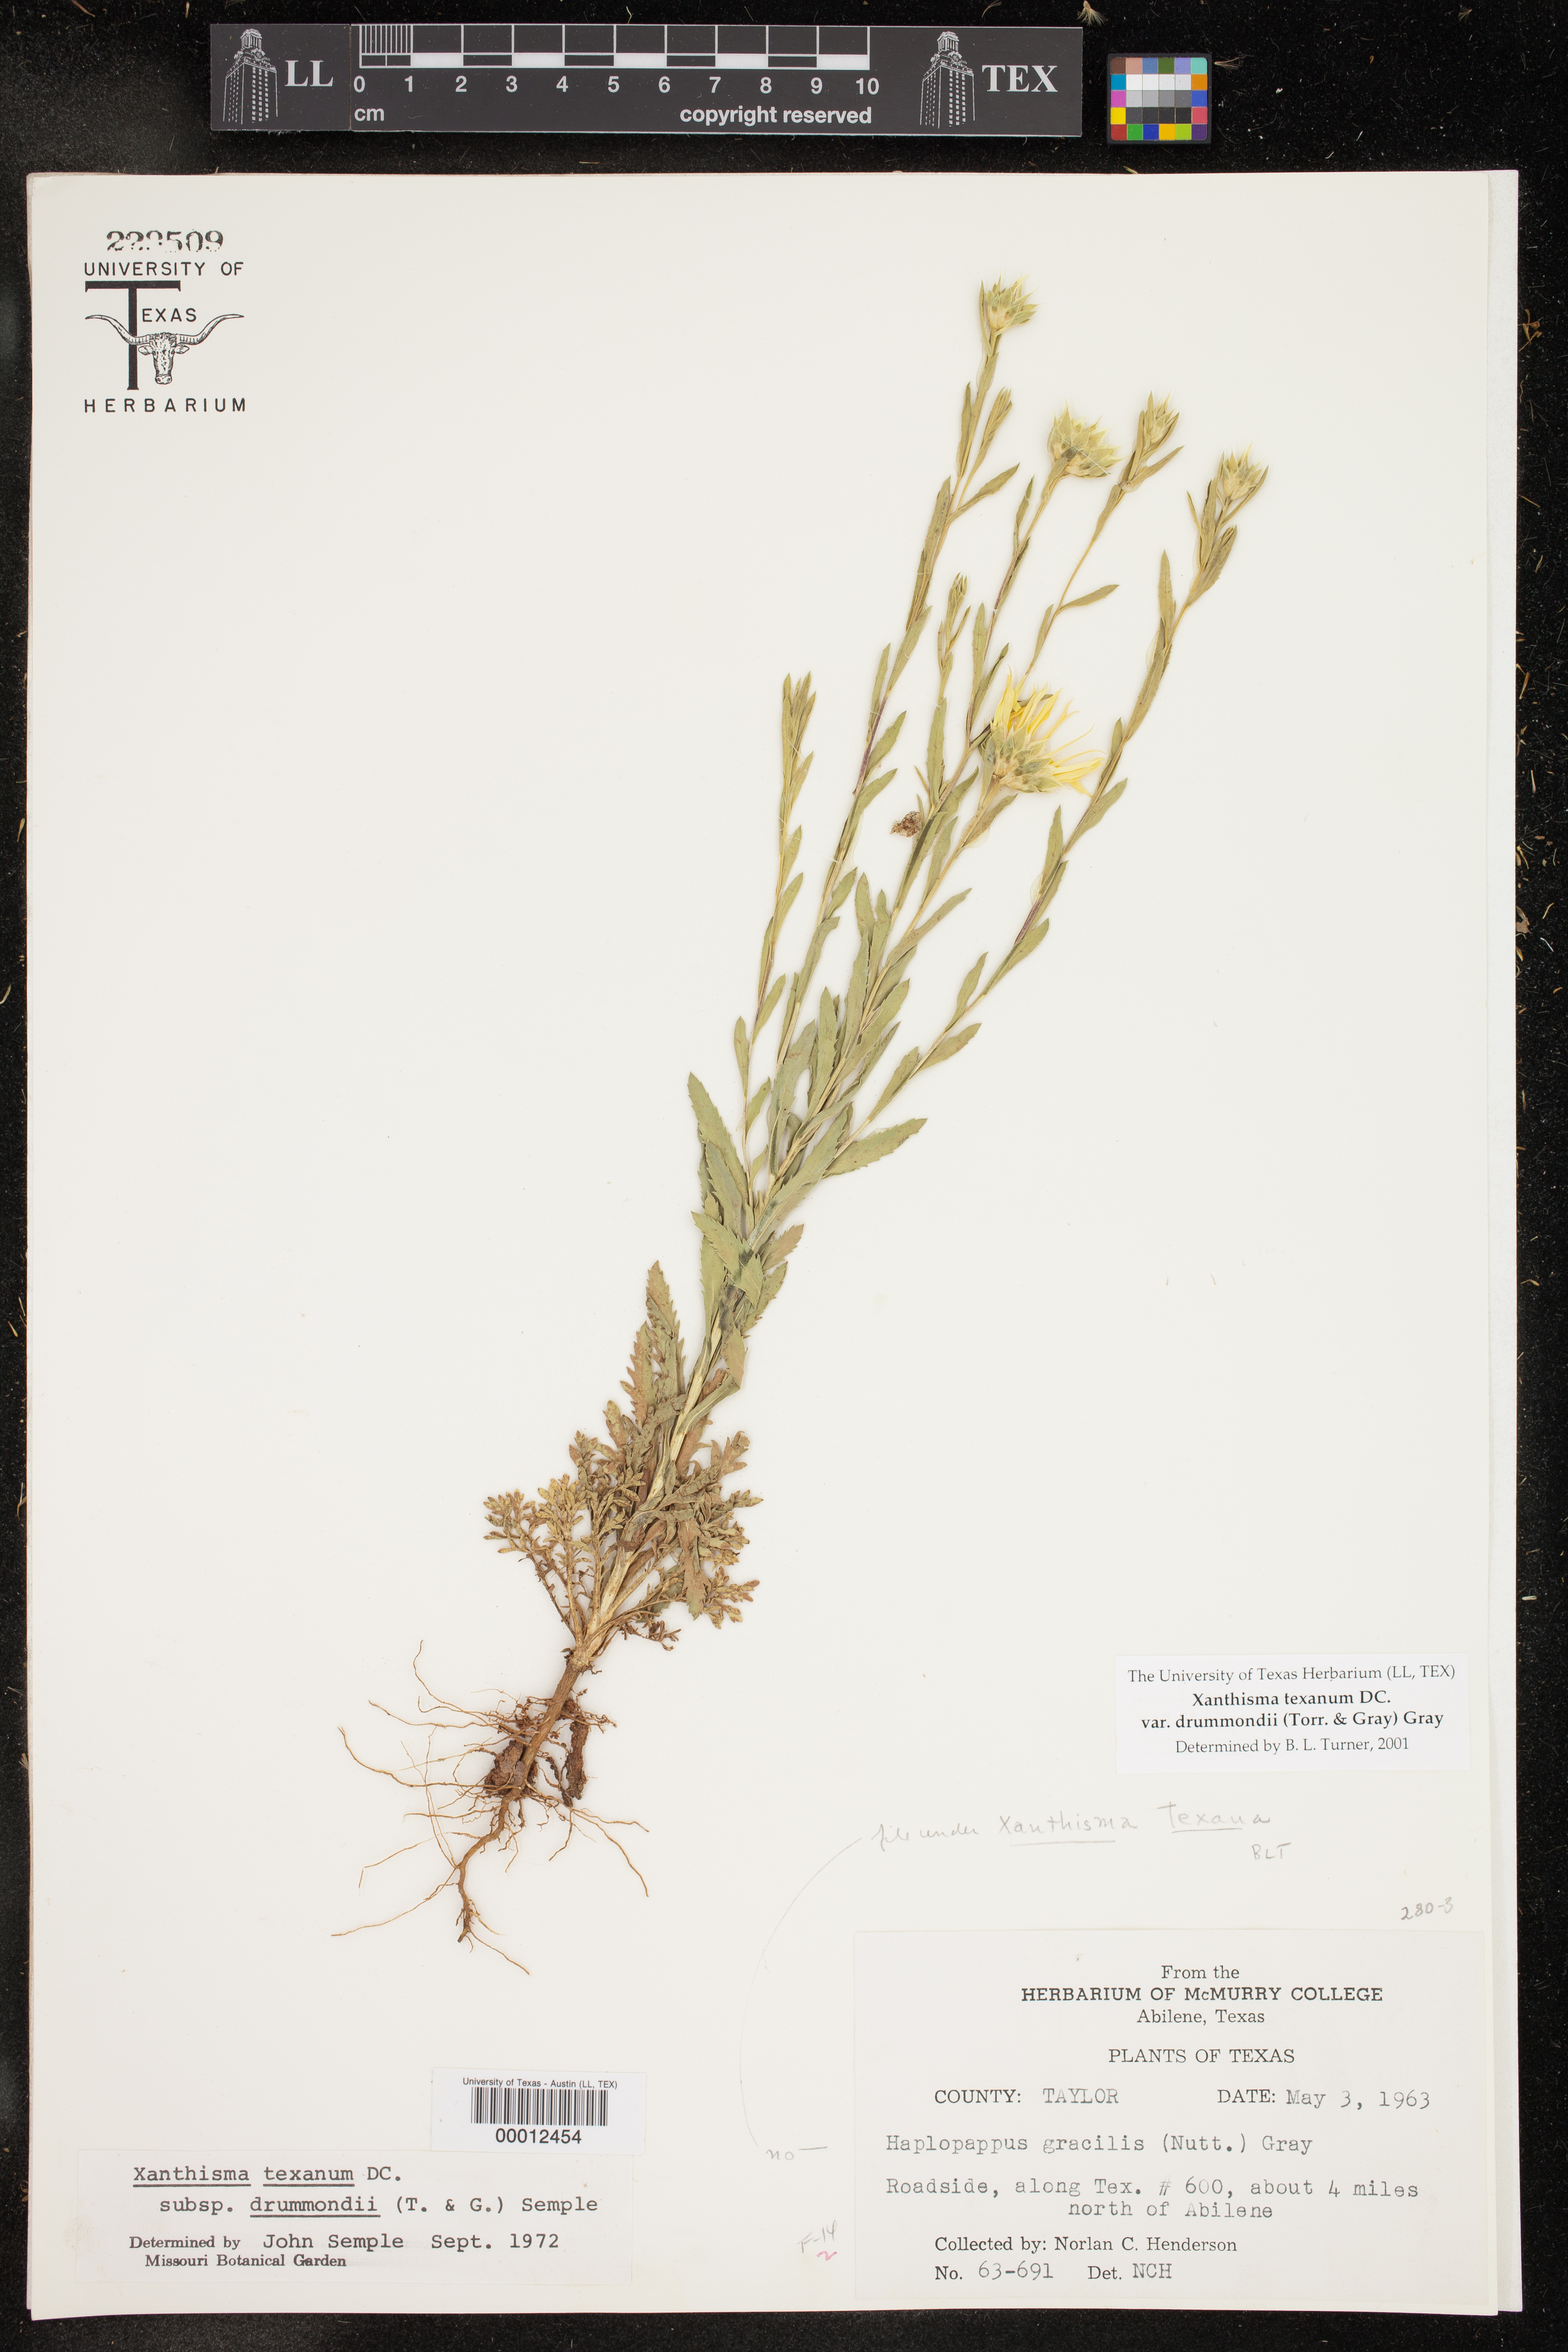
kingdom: Plantae
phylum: Tracheophyta
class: Magnoliopsida
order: Asterales
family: Asteraceae
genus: Xanthisma
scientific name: Xanthisma texanum
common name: Texas sleepy daisy
